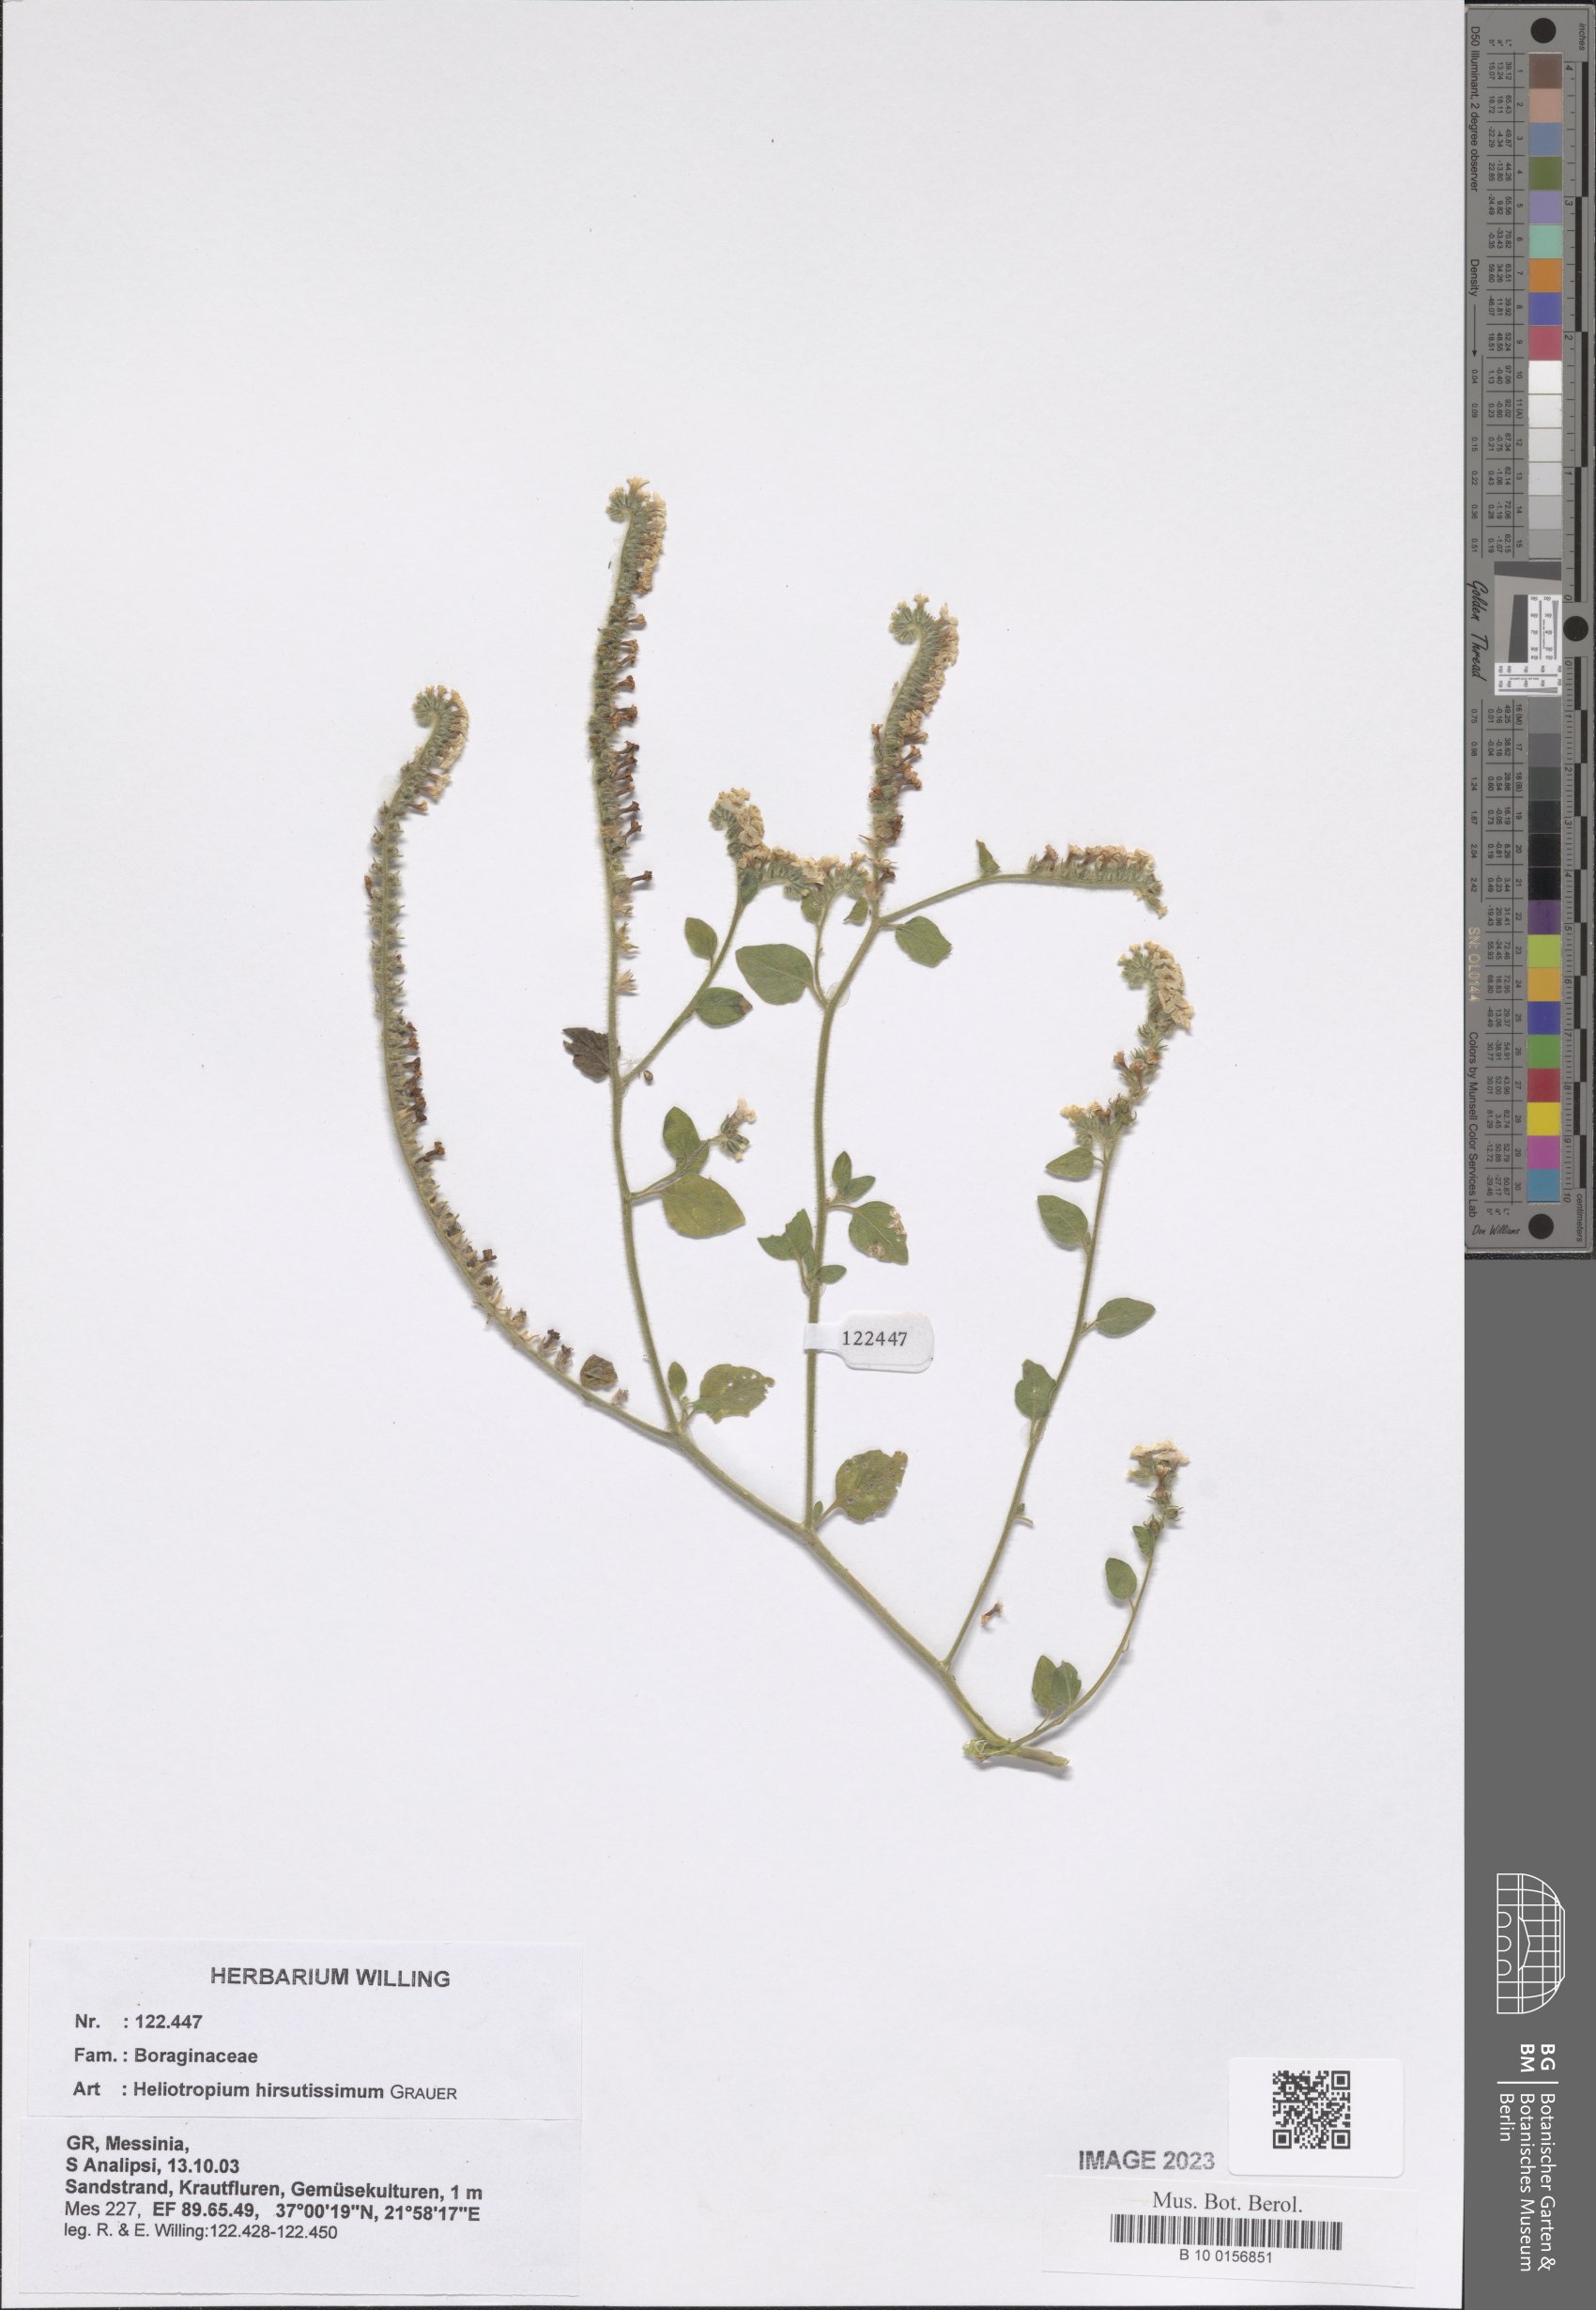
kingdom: Plantae
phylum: Tracheophyta
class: Magnoliopsida
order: Boraginales
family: Heliotropiaceae
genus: Heliotropium
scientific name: Heliotropium hirsutissimum
